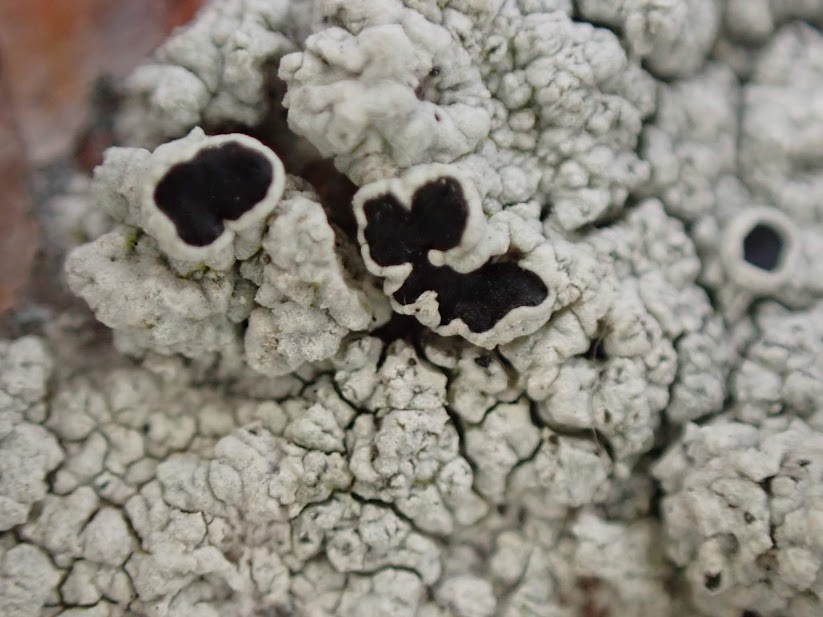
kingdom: Fungi
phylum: Ascomycota
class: Lecanoromycetes
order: Lecanorales
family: Tephromelataceae
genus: Tephromela
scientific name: Tephromela atra
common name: sortfrugtet kantskivelav
